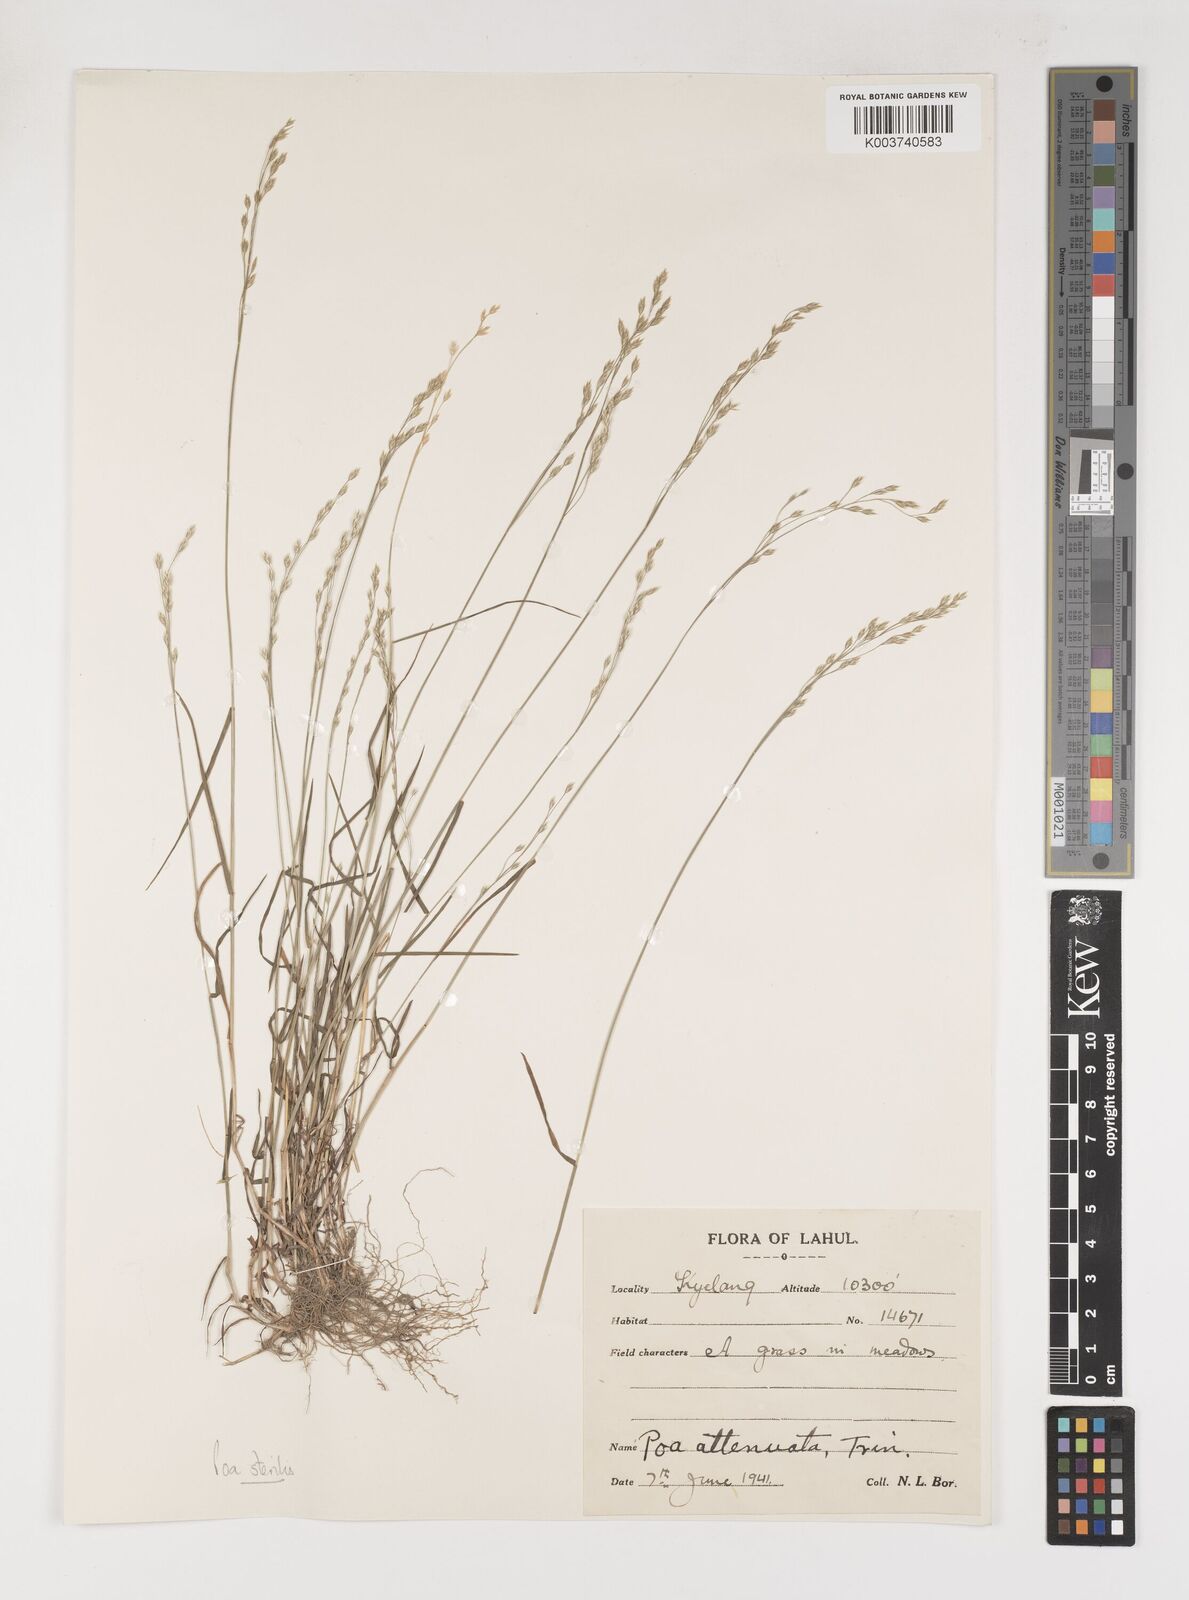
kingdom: Plantae
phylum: Tracheophyta
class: Liliopsida
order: Poales
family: Poaceae
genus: Poa
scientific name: Poa sterilis
